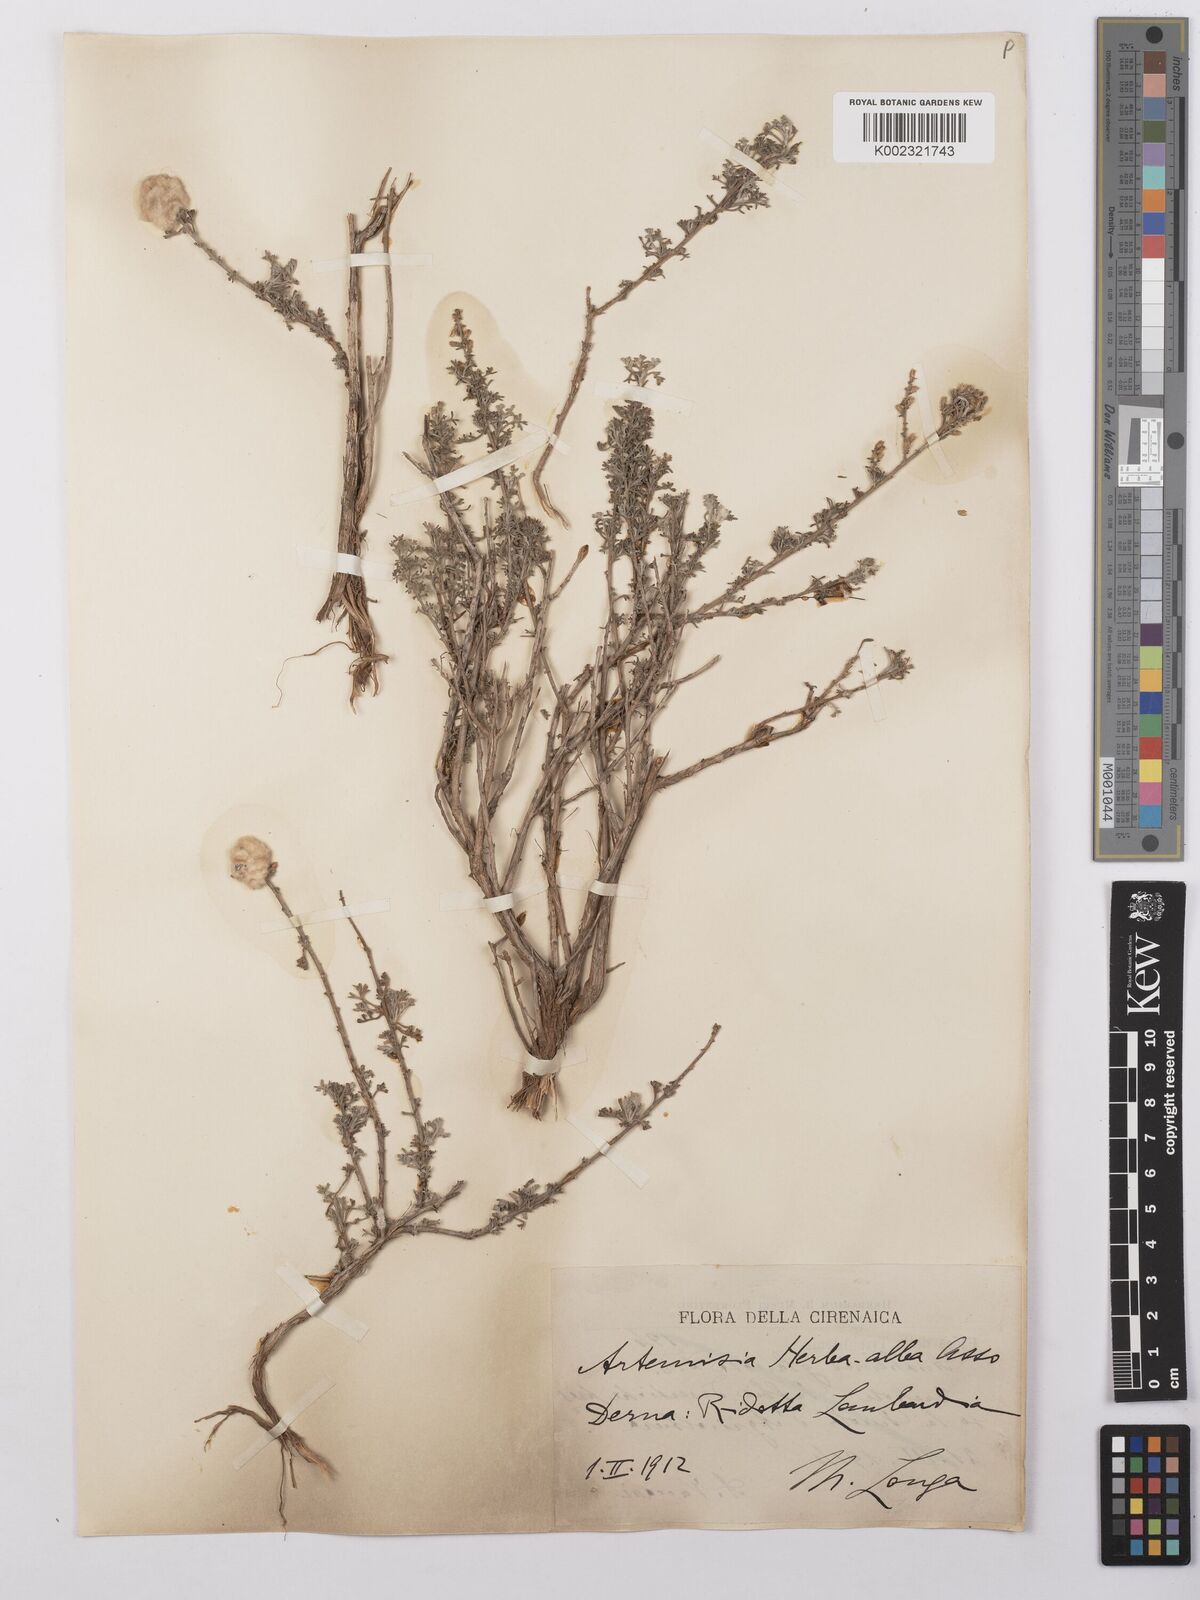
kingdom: Plantae
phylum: Tracheophyta
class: Magnoliopsida
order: Asterales
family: Asteraceae
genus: Artemisia
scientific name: Artemisia herba-alba
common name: White wormwood
